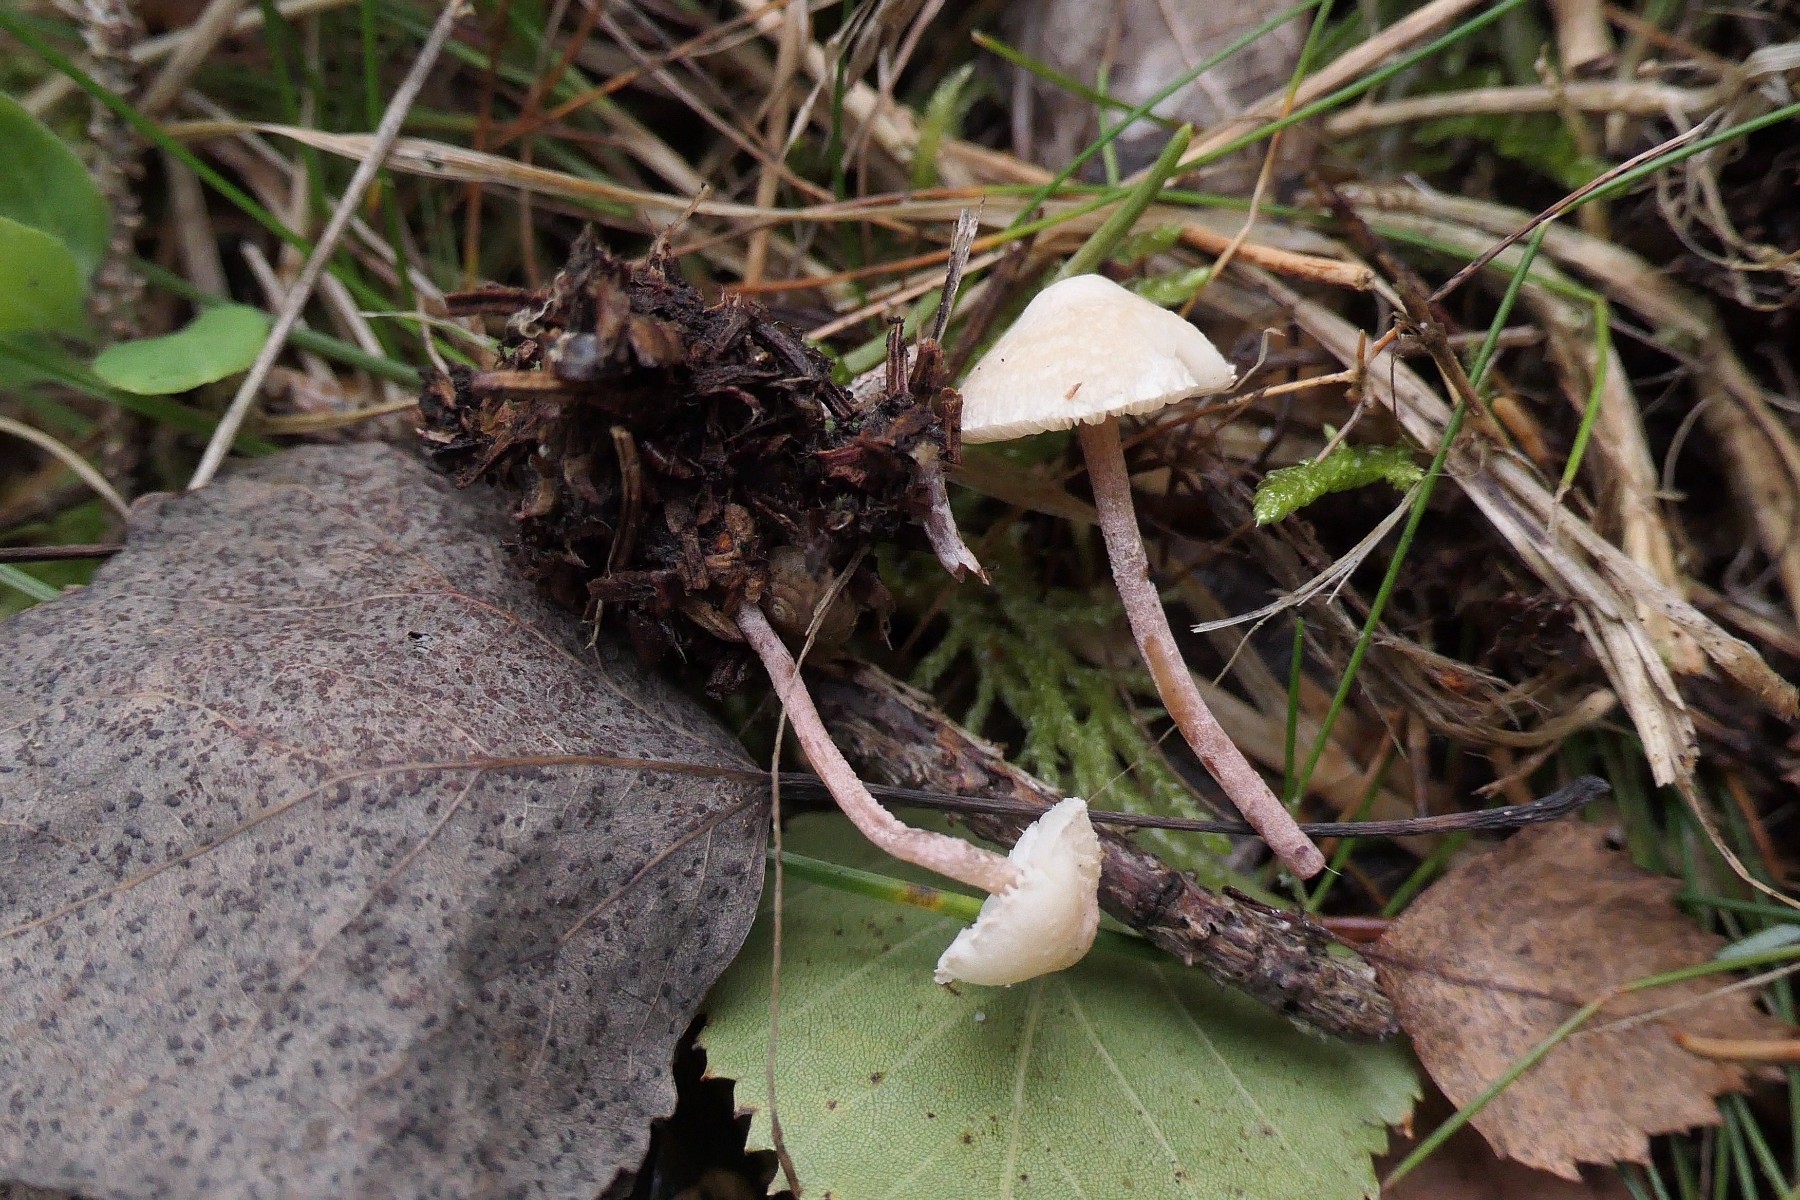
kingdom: Fungi
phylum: Basidiomycota
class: Agaricomycetes
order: Agaricales
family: Agaricaceae
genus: Cystolepiota
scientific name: Cystolepiota seminuda
